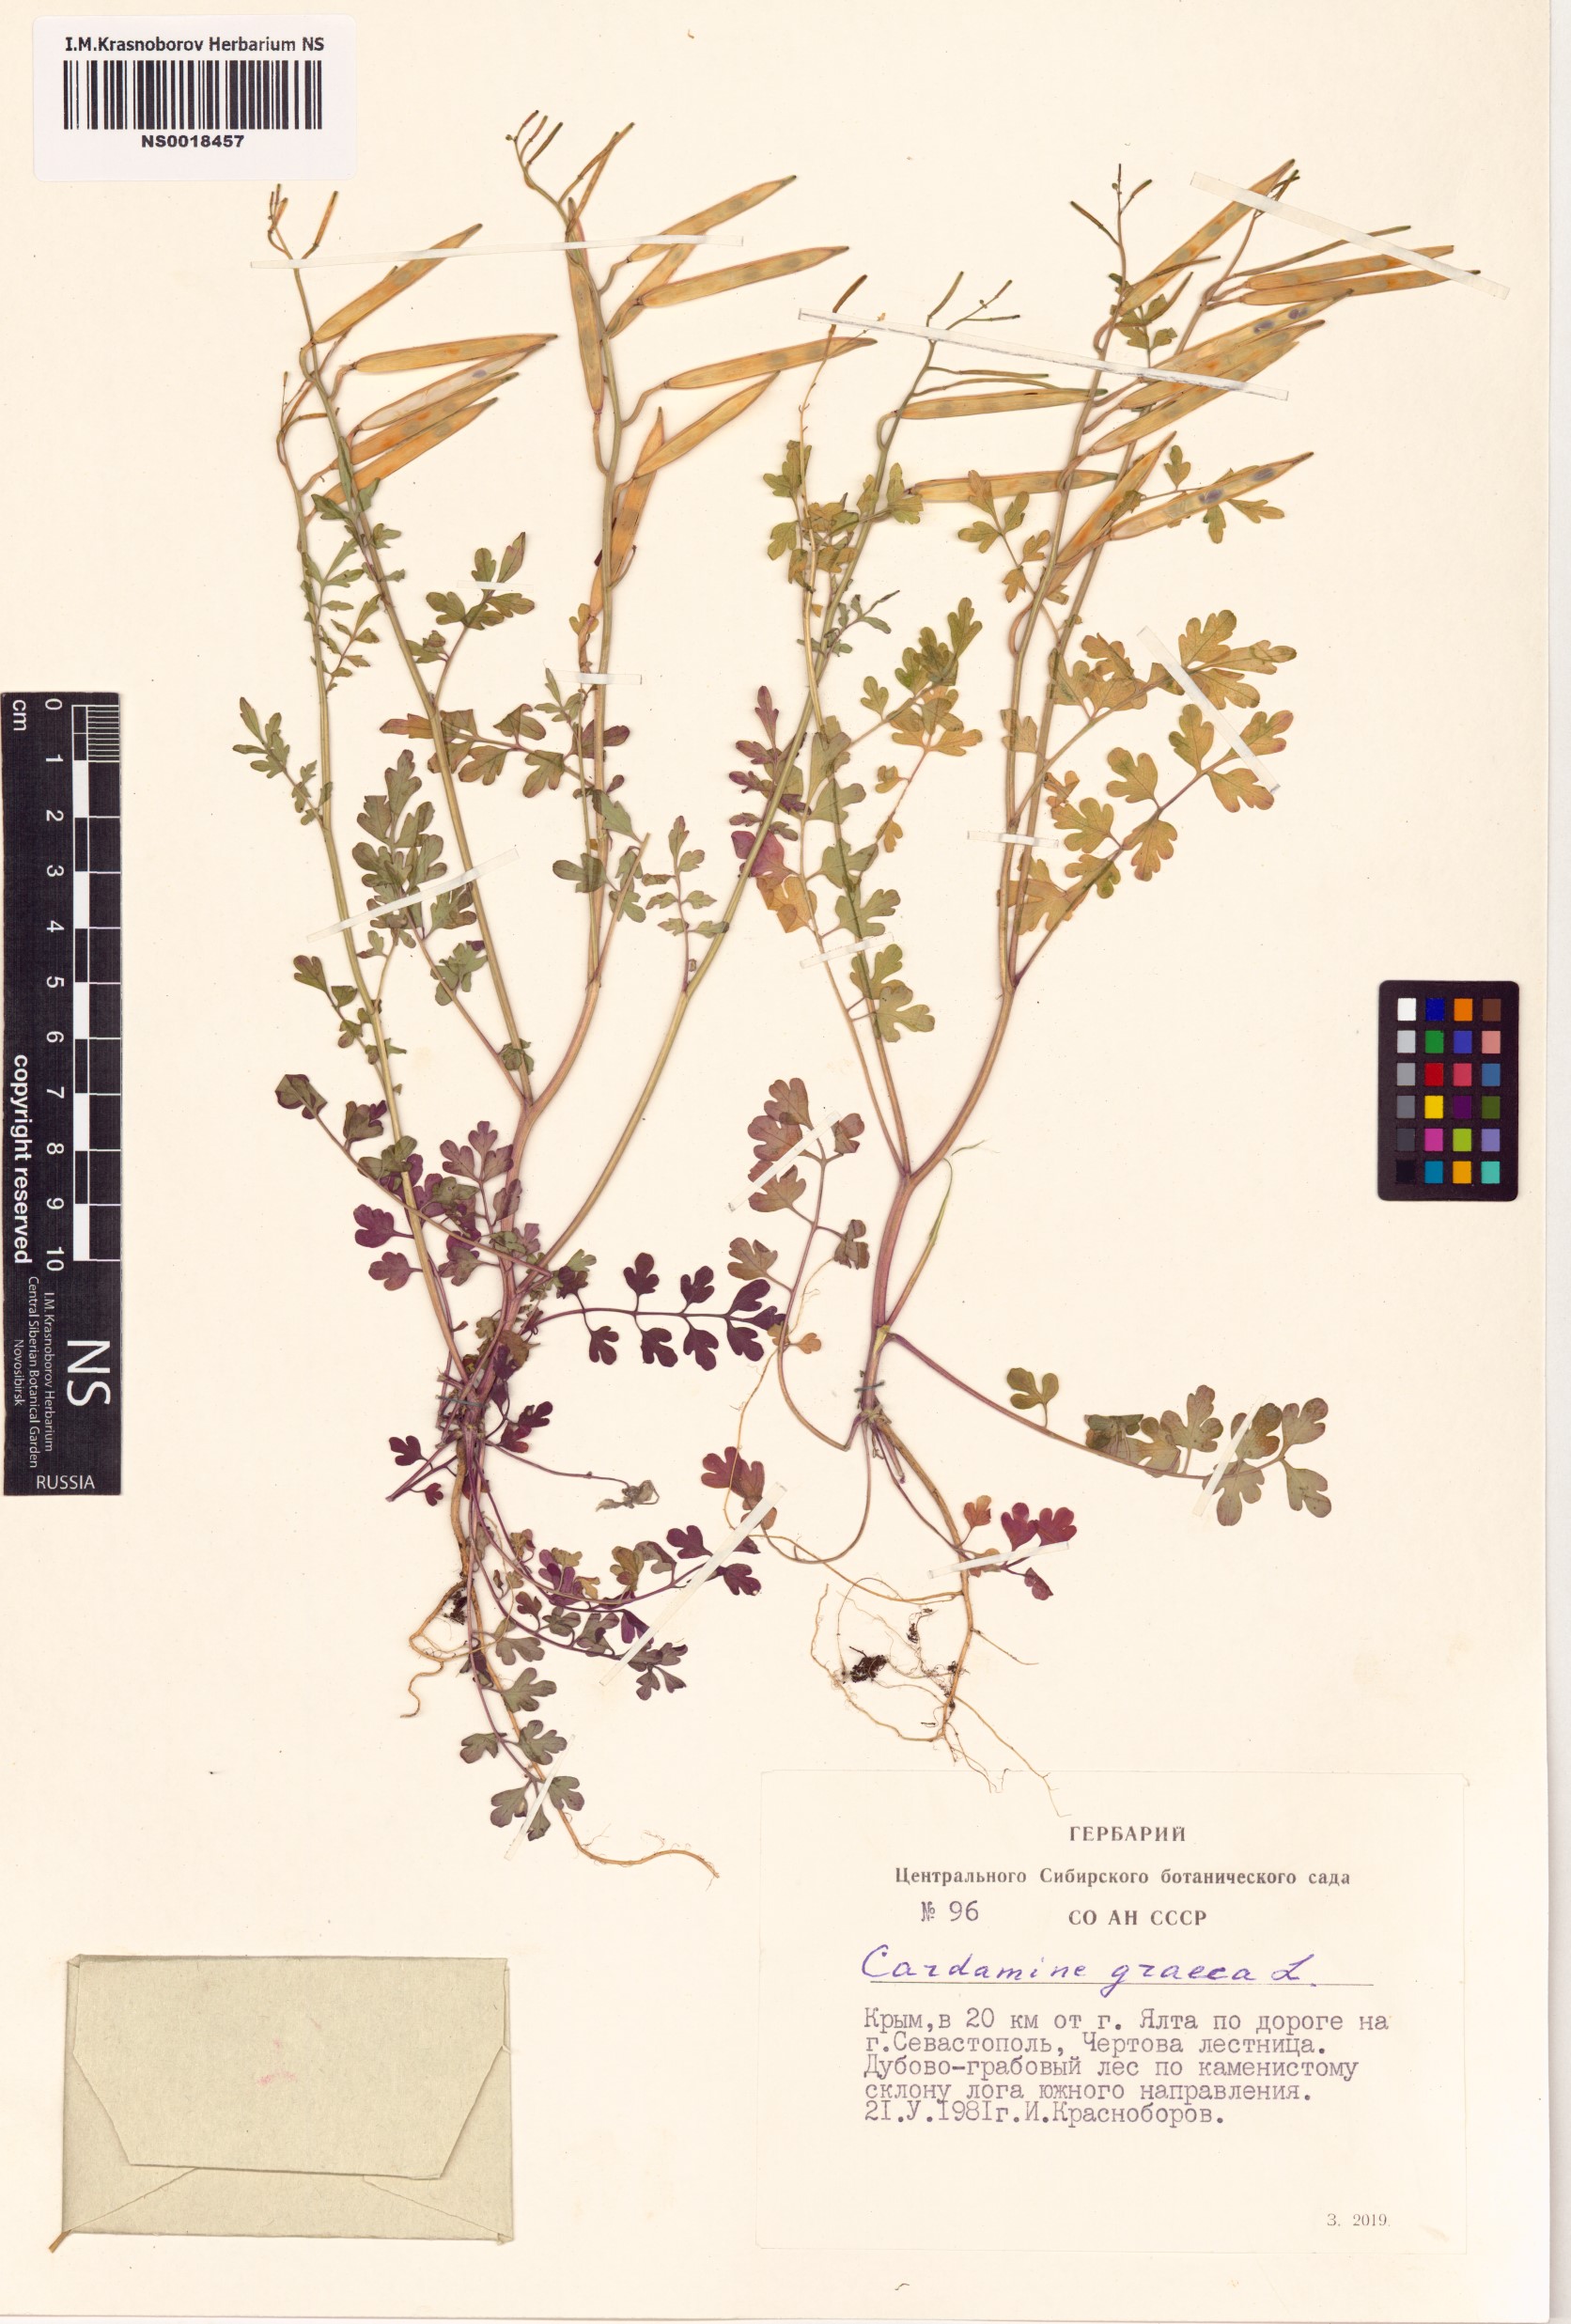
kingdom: Plantae
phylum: Tracheophyta
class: Magnoliopsida
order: Brassicales
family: Brassicaceae
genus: Cardamine
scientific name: Cardamine graeca
